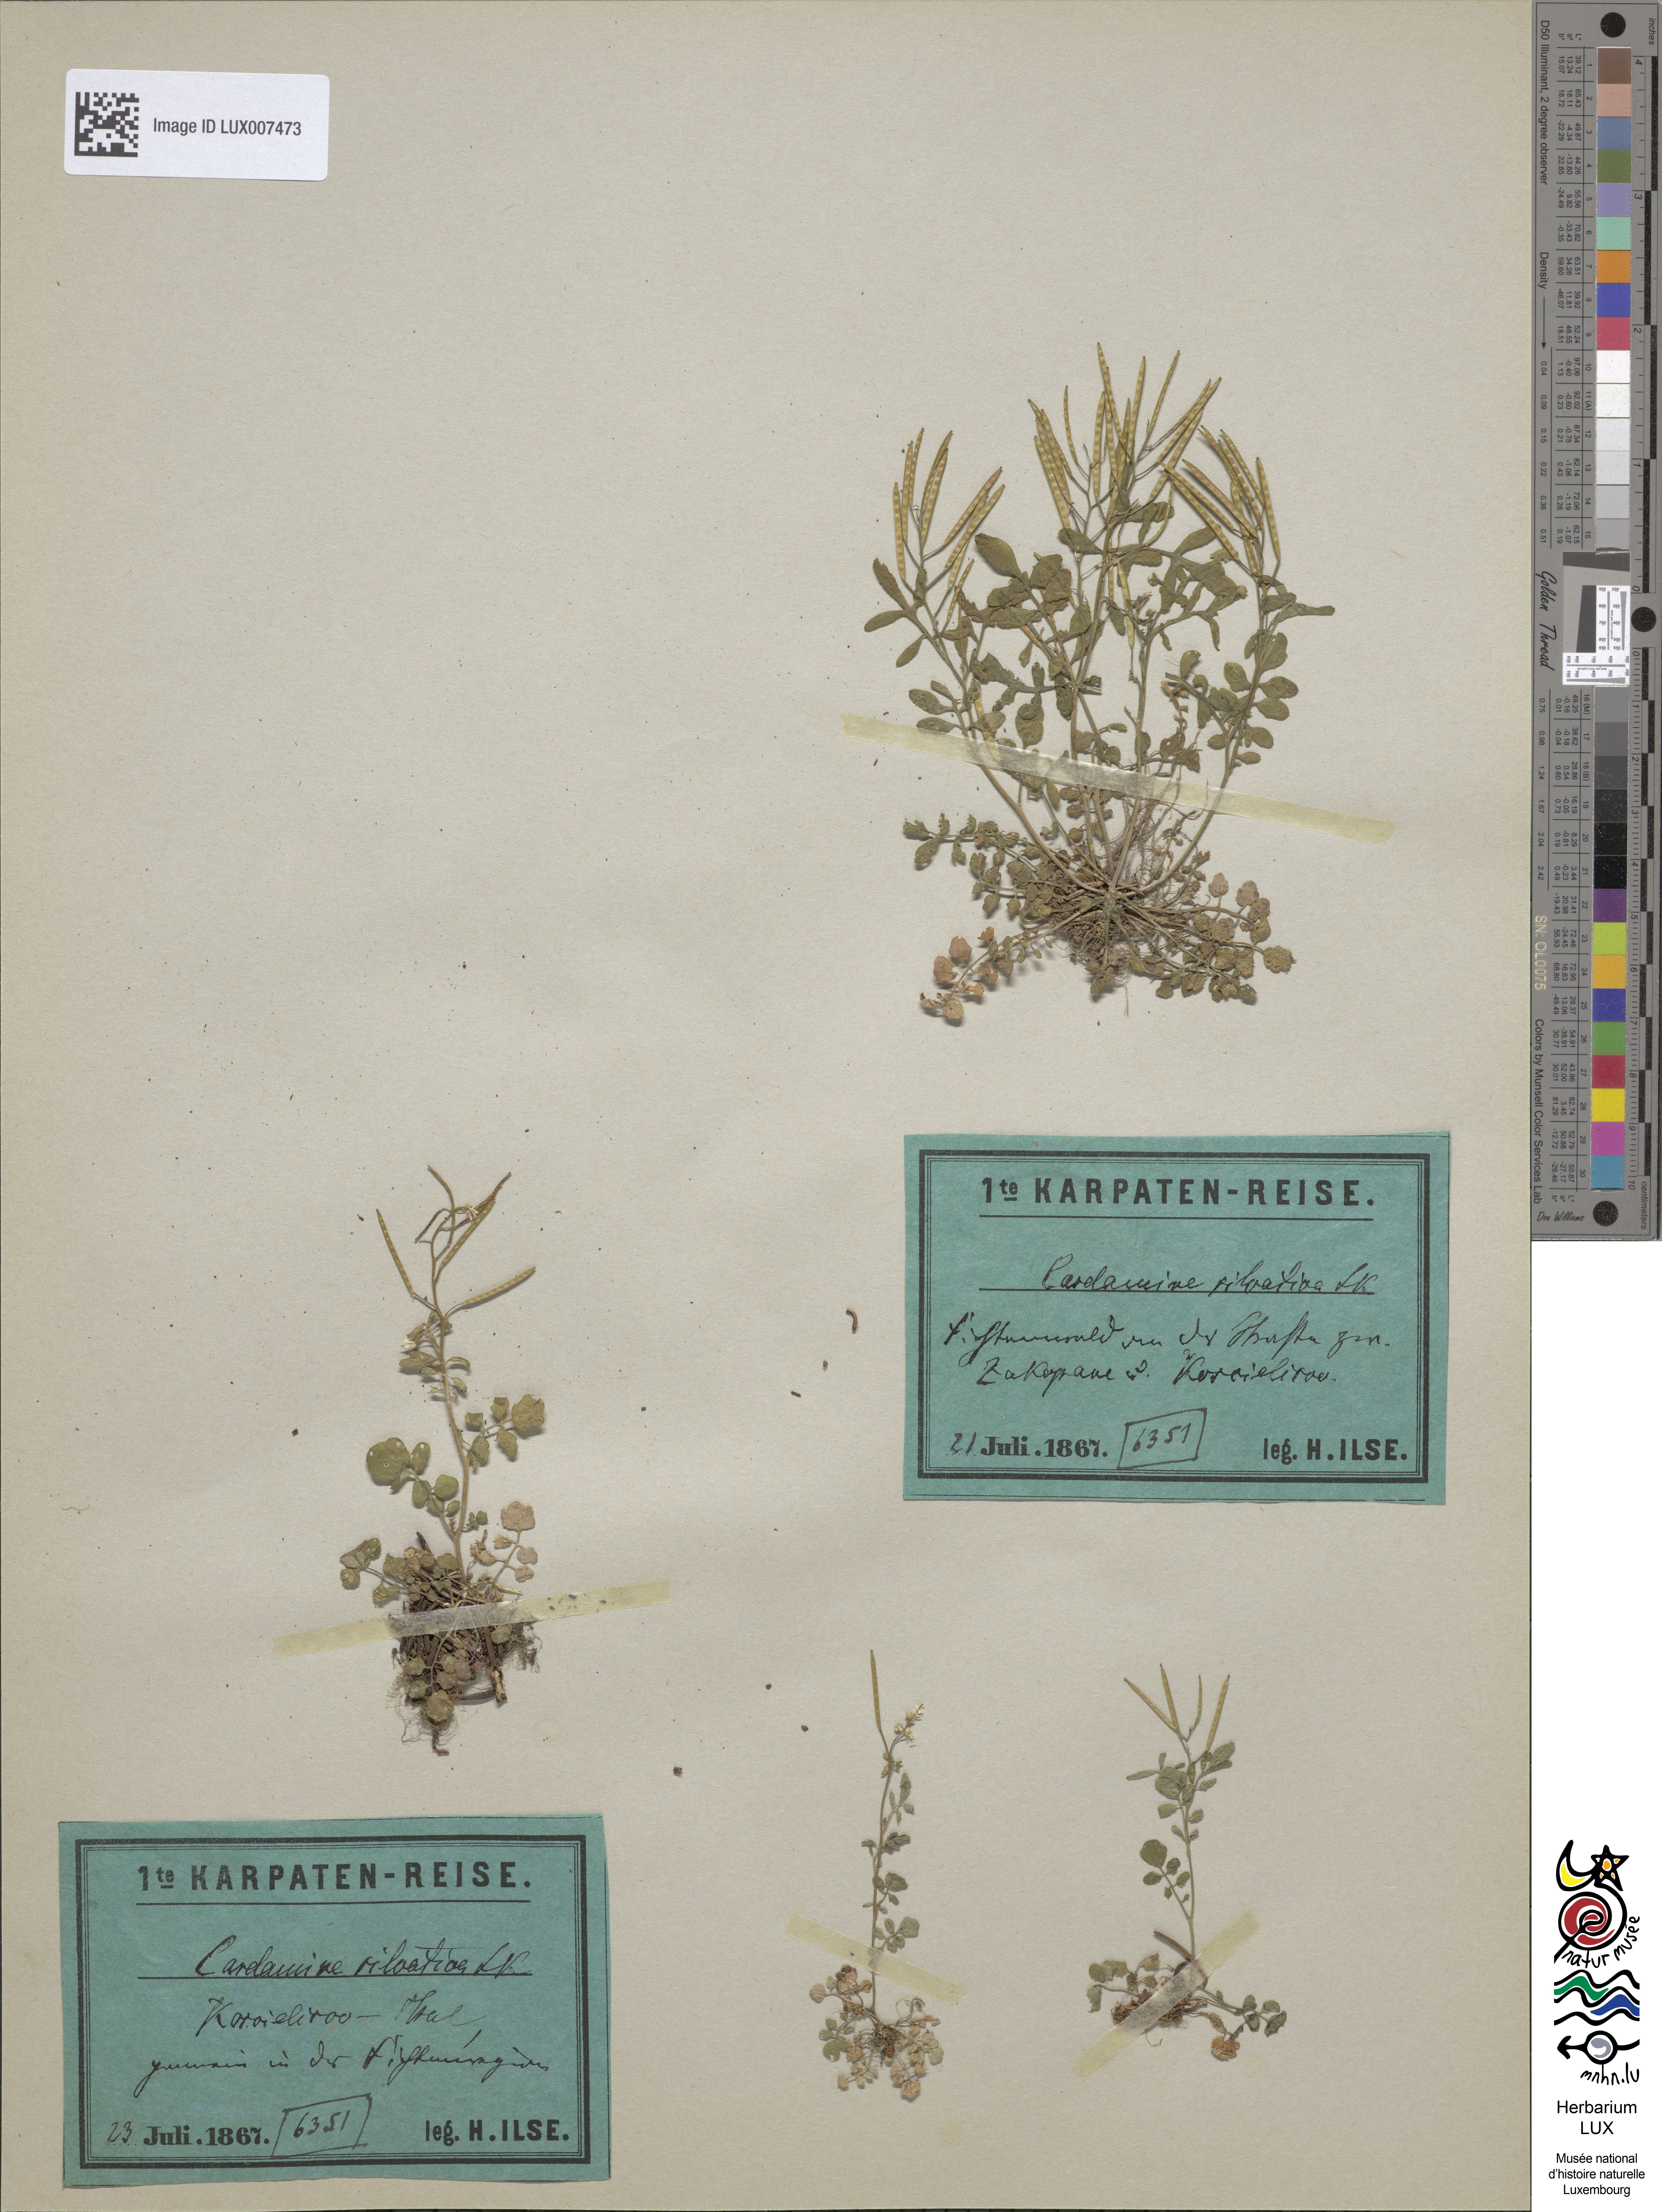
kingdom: Plantae
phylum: Tracheophyta
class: Magnoliopsida
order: Brassicales
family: Brassicaceae
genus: Cardamine
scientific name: Cardamine flexuosa
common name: Woodland bittercress
